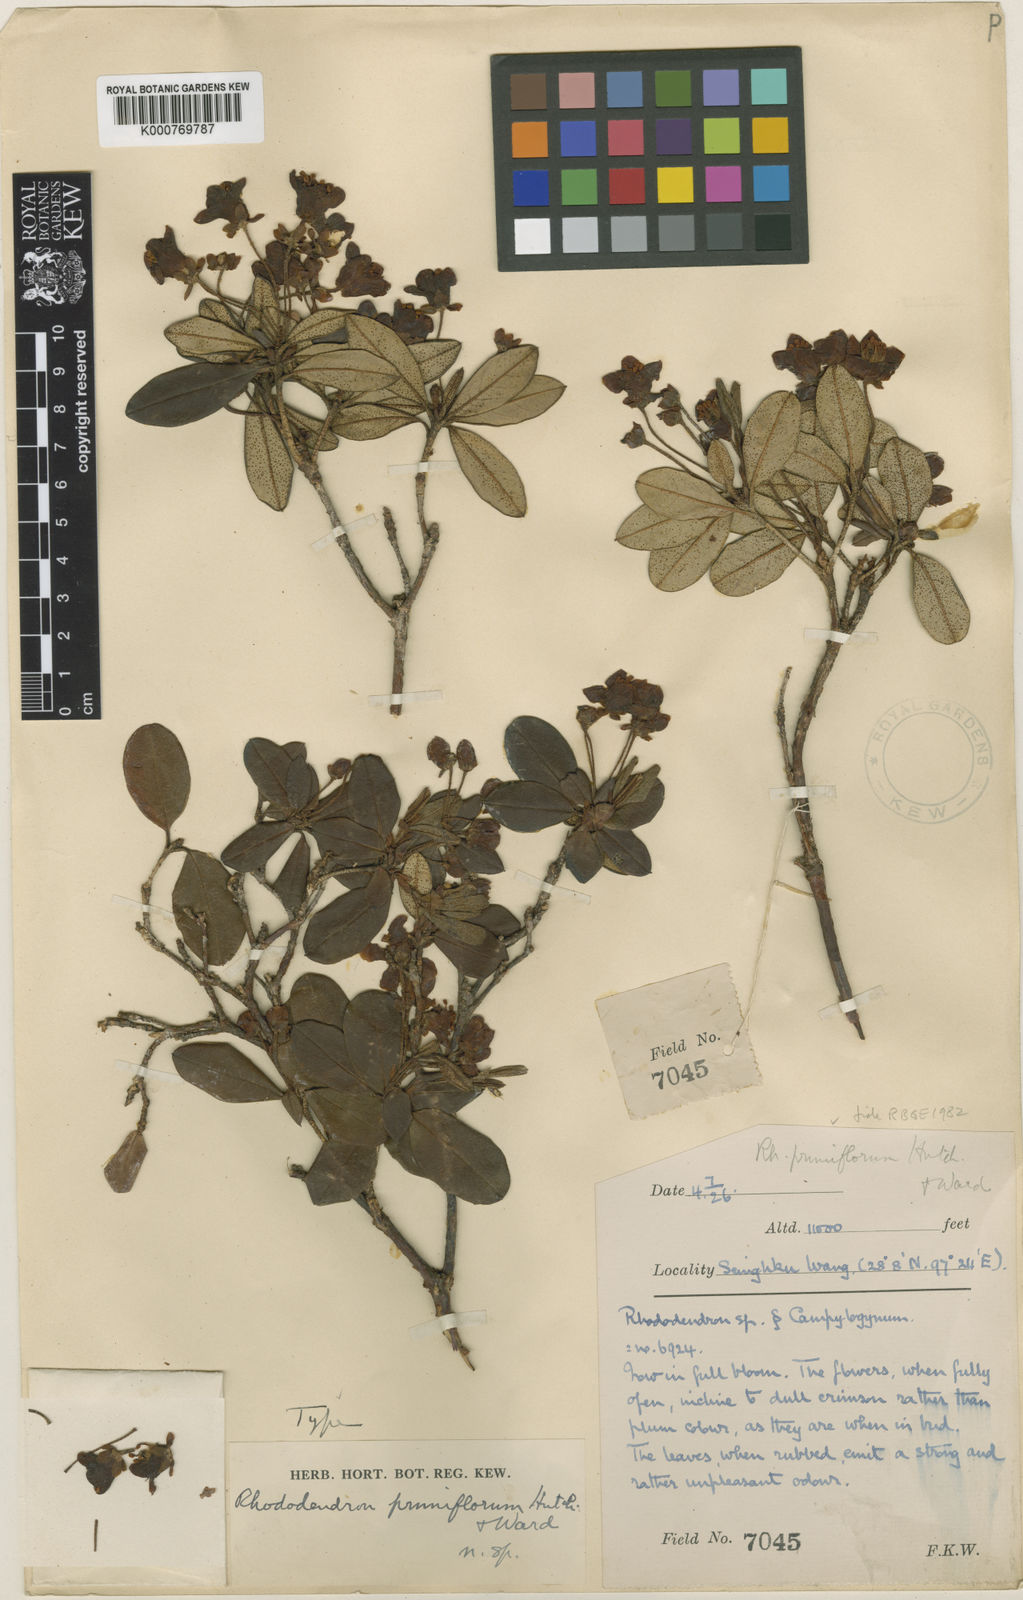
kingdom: Plantae
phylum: Tracheophyta
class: Magnoliopsida
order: Ericales
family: Ericaceae
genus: Rhododendron
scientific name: Rhododendron pruniflorum
